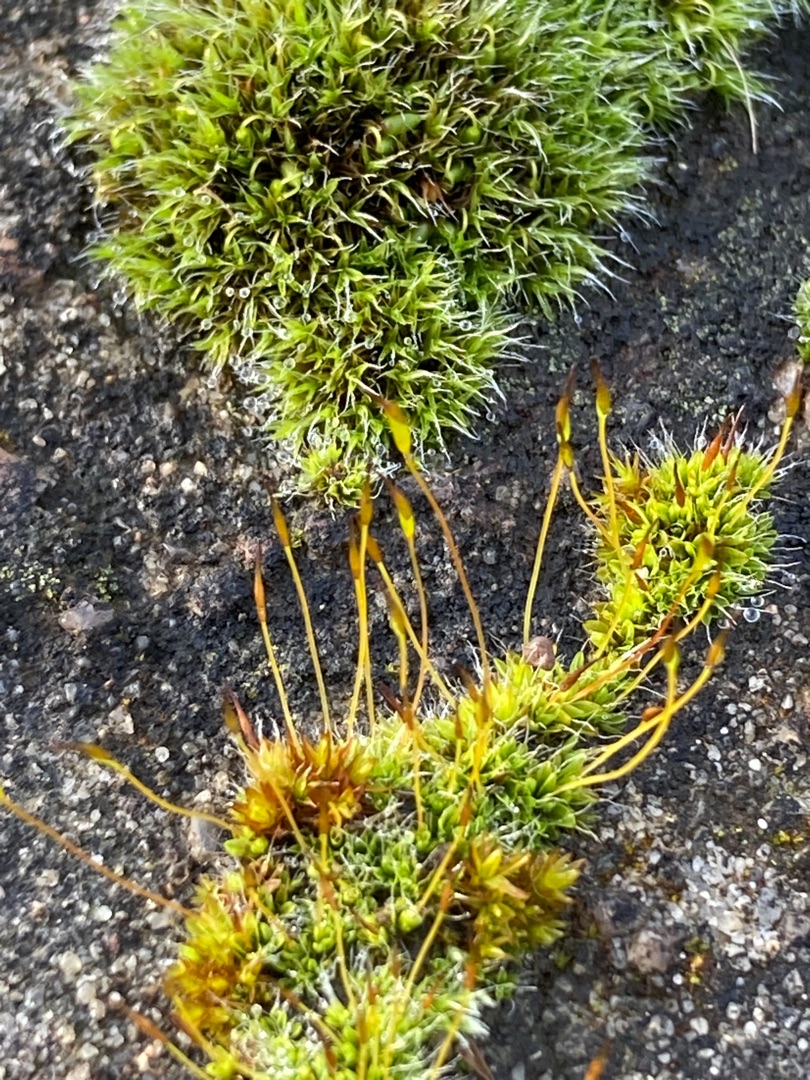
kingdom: Plantae
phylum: Bryophyta
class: Bryopsida
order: Pottiales
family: Pottiaceae
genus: Tortula
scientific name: Tortula muralis
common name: Mur-snotand
